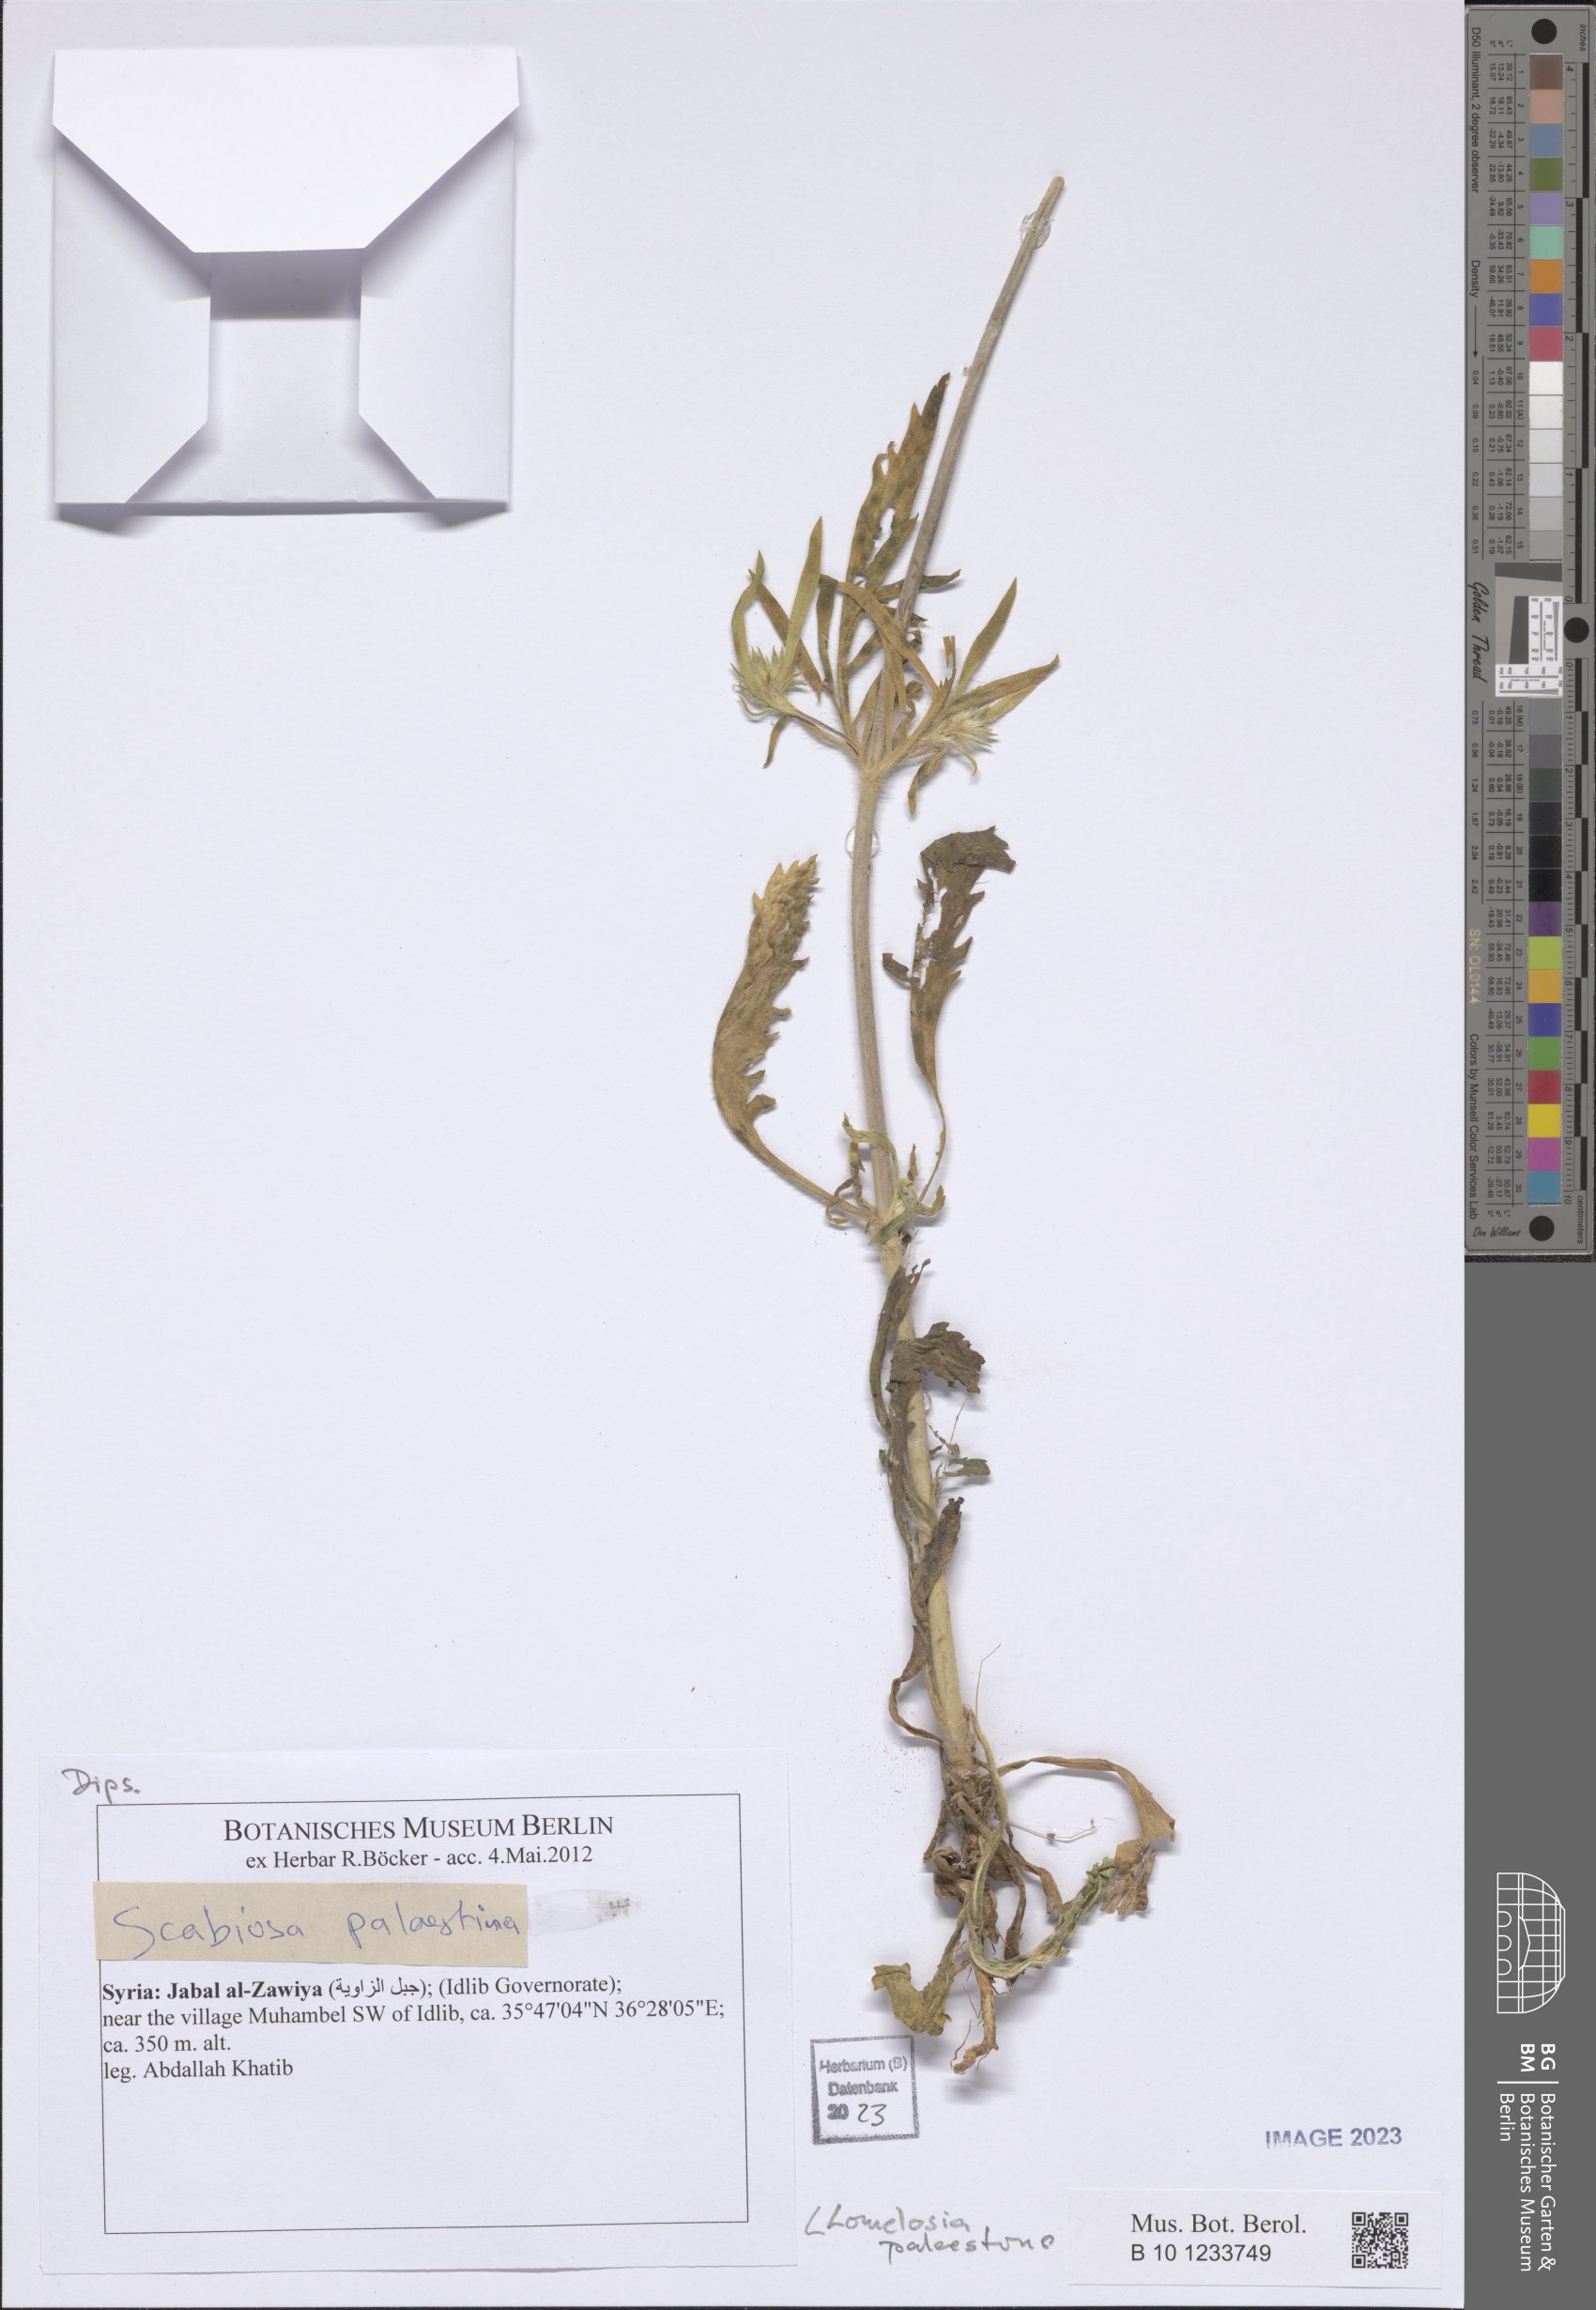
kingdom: Plantae
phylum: Tracheophyta
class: Magnoliopsida
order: Dipsacales
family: Caprifoliaceae
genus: Lomelosia
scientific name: Lomelosia palaestina
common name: Balkan pincushions
